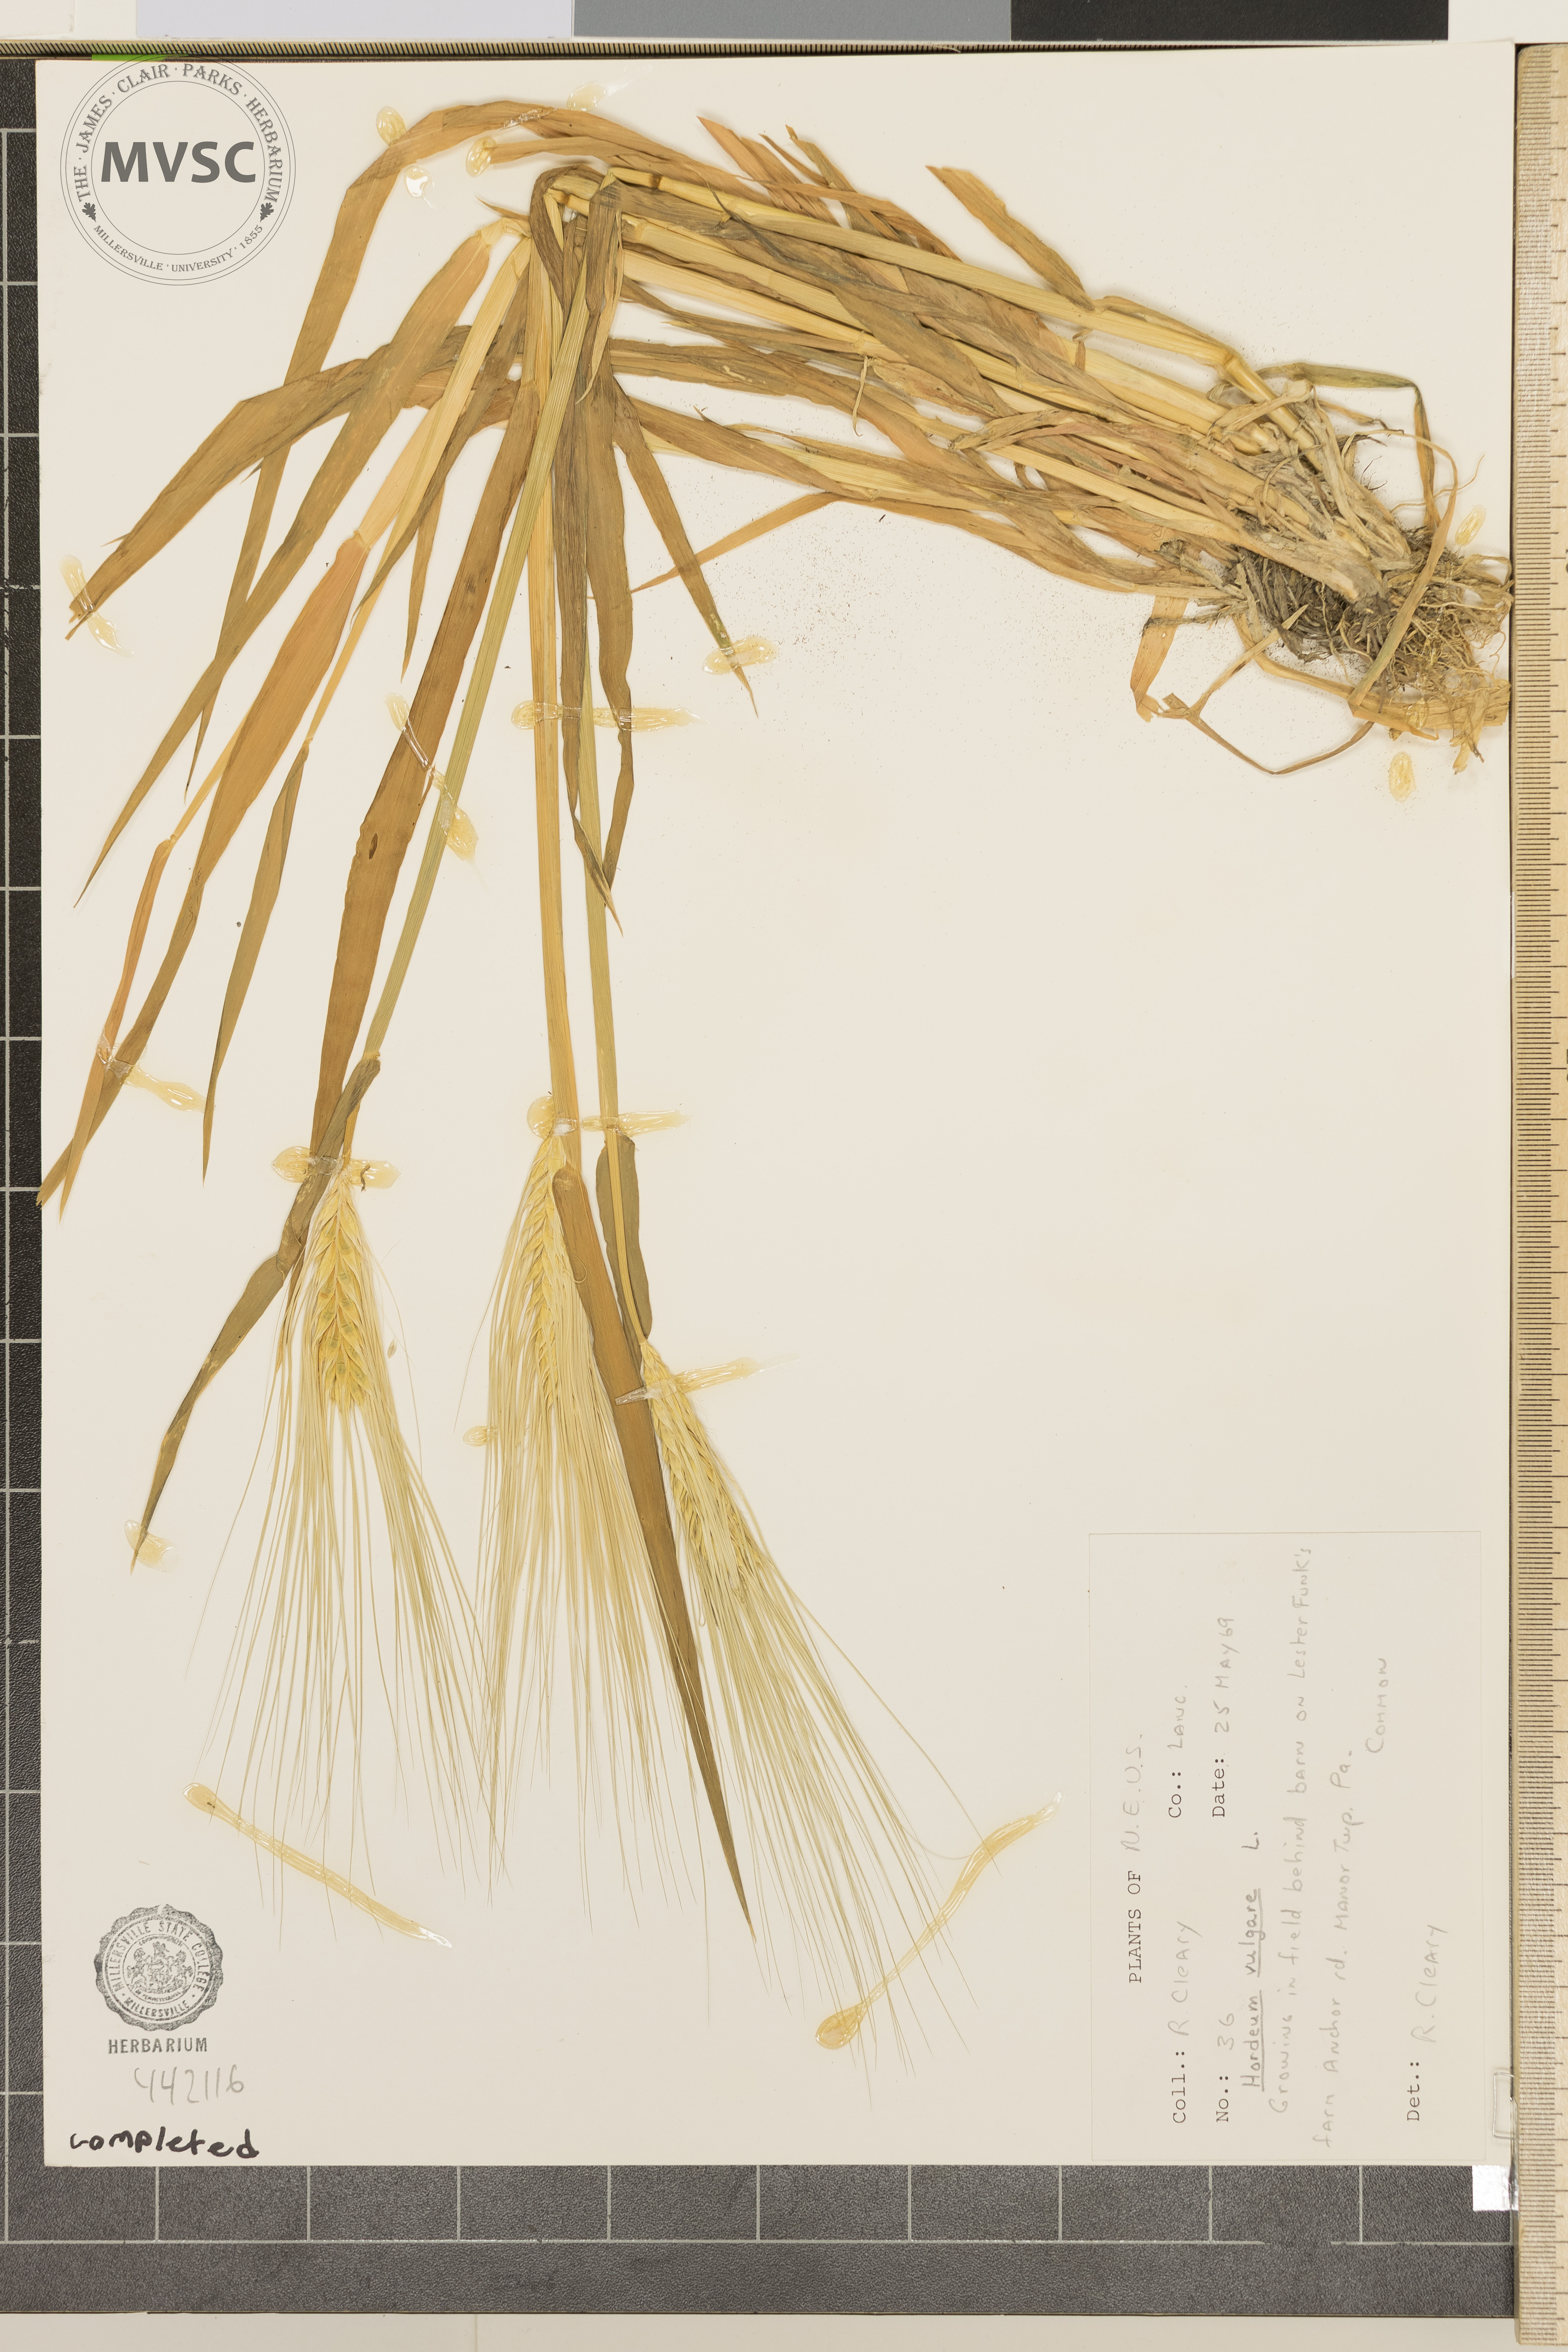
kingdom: Plantae
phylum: Tracheophyta
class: Liliopsida
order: Poales
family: Poaceae
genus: Hordeum
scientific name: Hordeum vulgare
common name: Common barley
